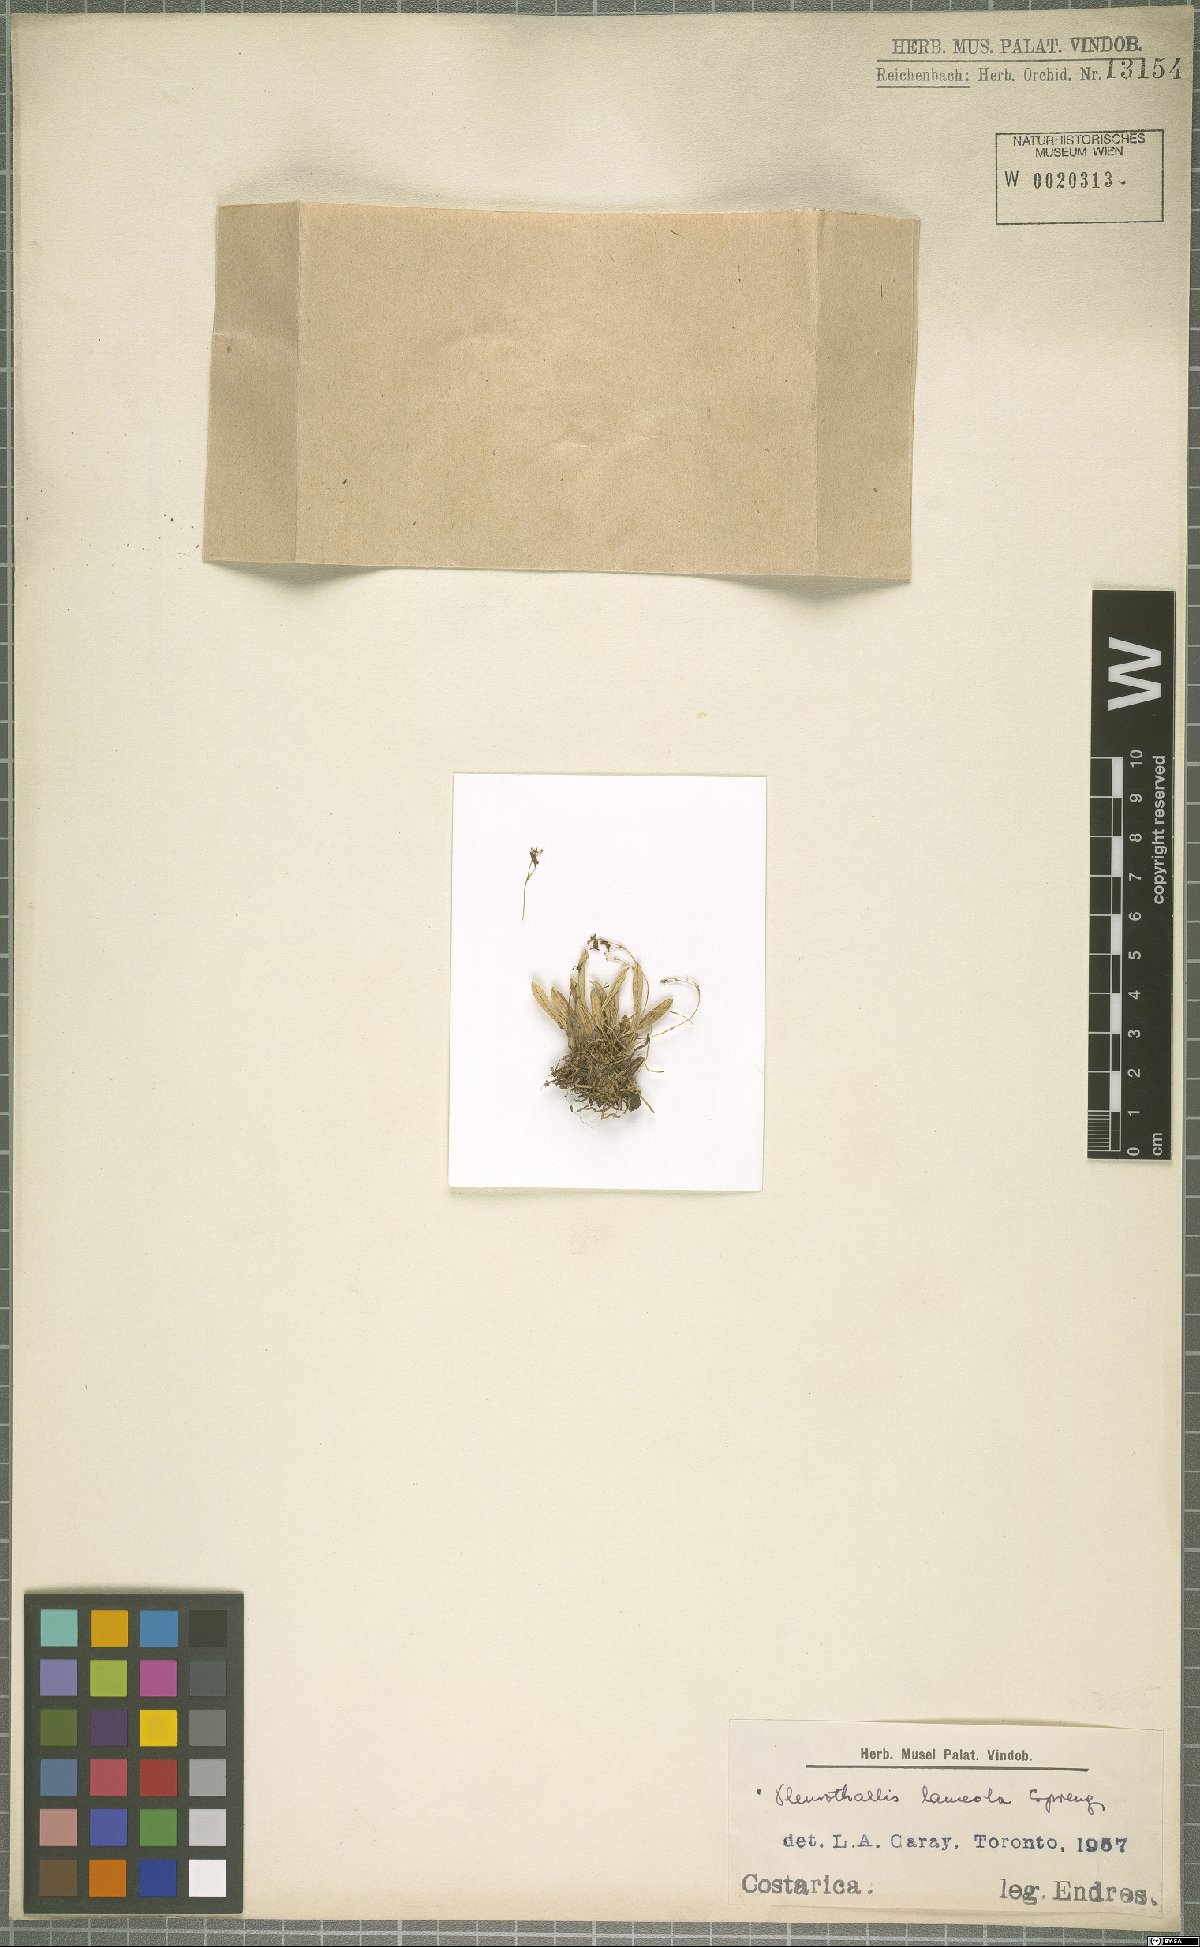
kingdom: Plantae
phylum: Tracheophyta
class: Liliopsida
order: Asparagales
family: Orchidaceae
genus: Specklinia
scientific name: Specklinia lanceola
